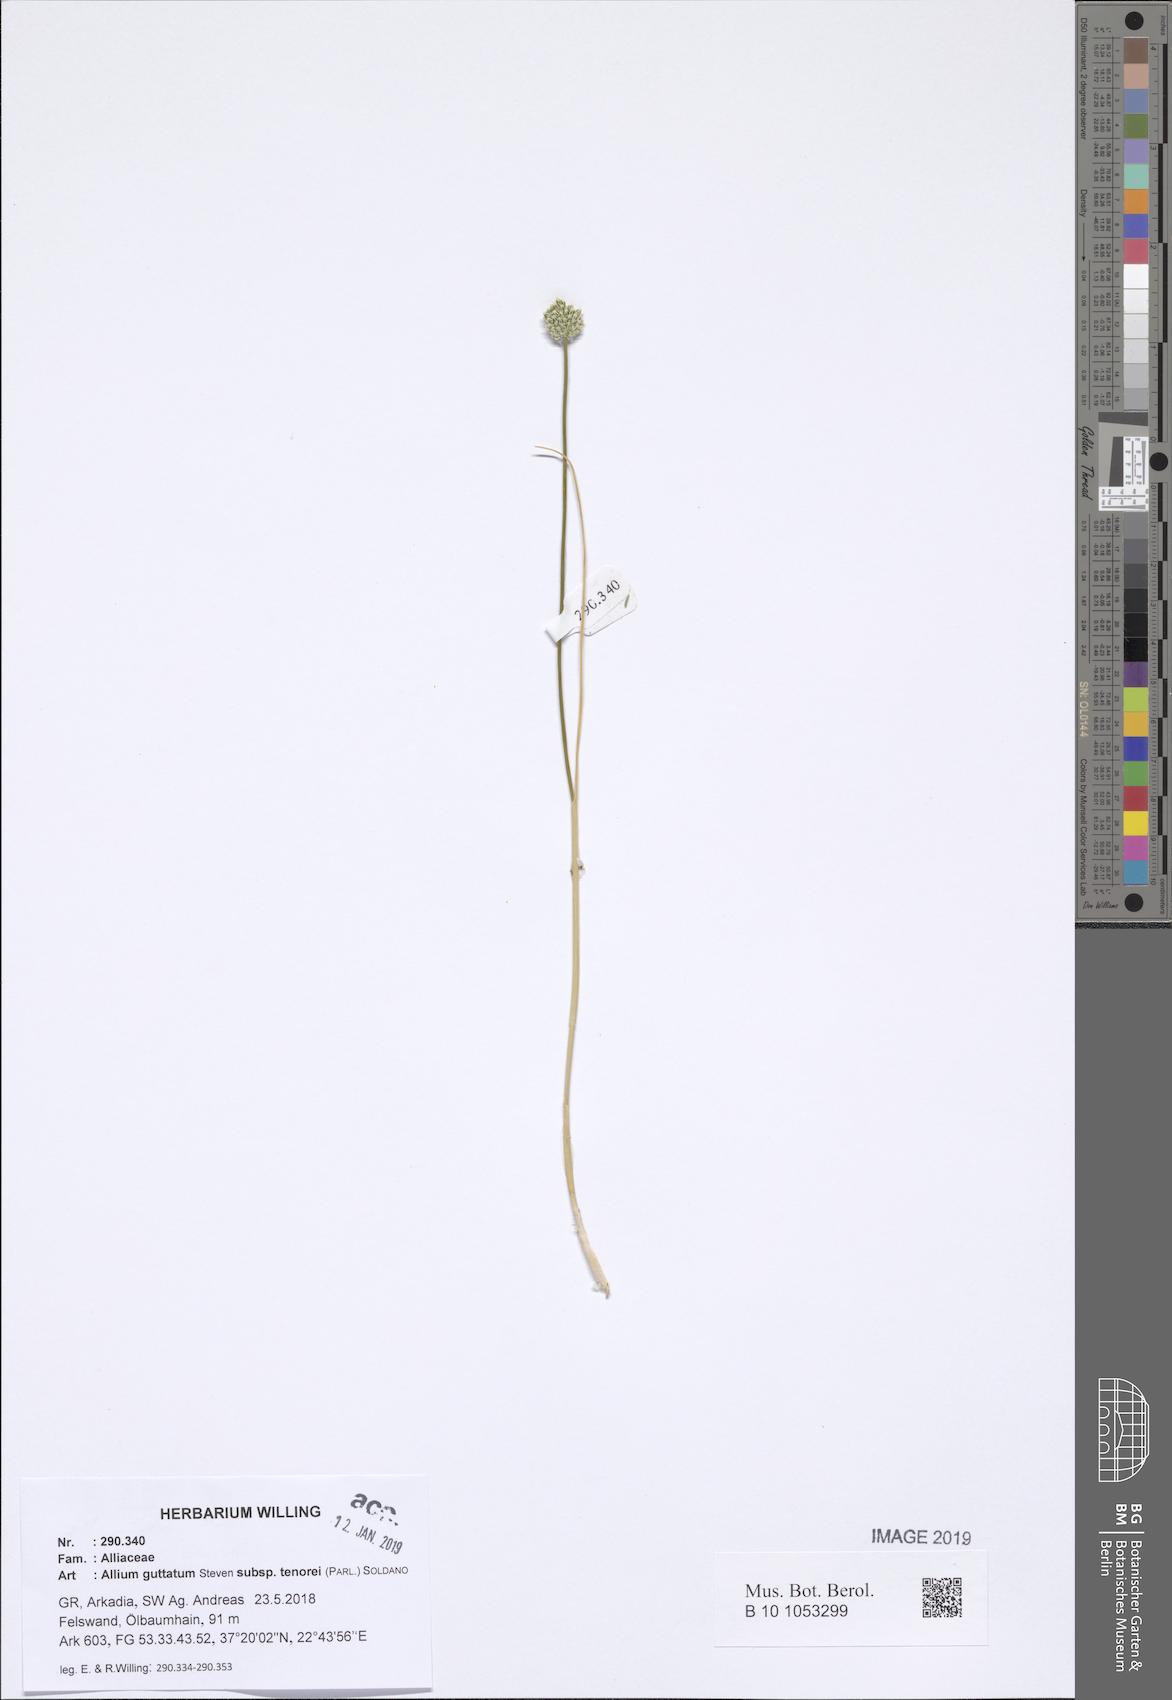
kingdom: Plantae
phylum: Tracheophyta
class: Liliopsida
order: Asparagales
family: Amaryllidaceae
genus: Allium
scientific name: Allium sardoum
